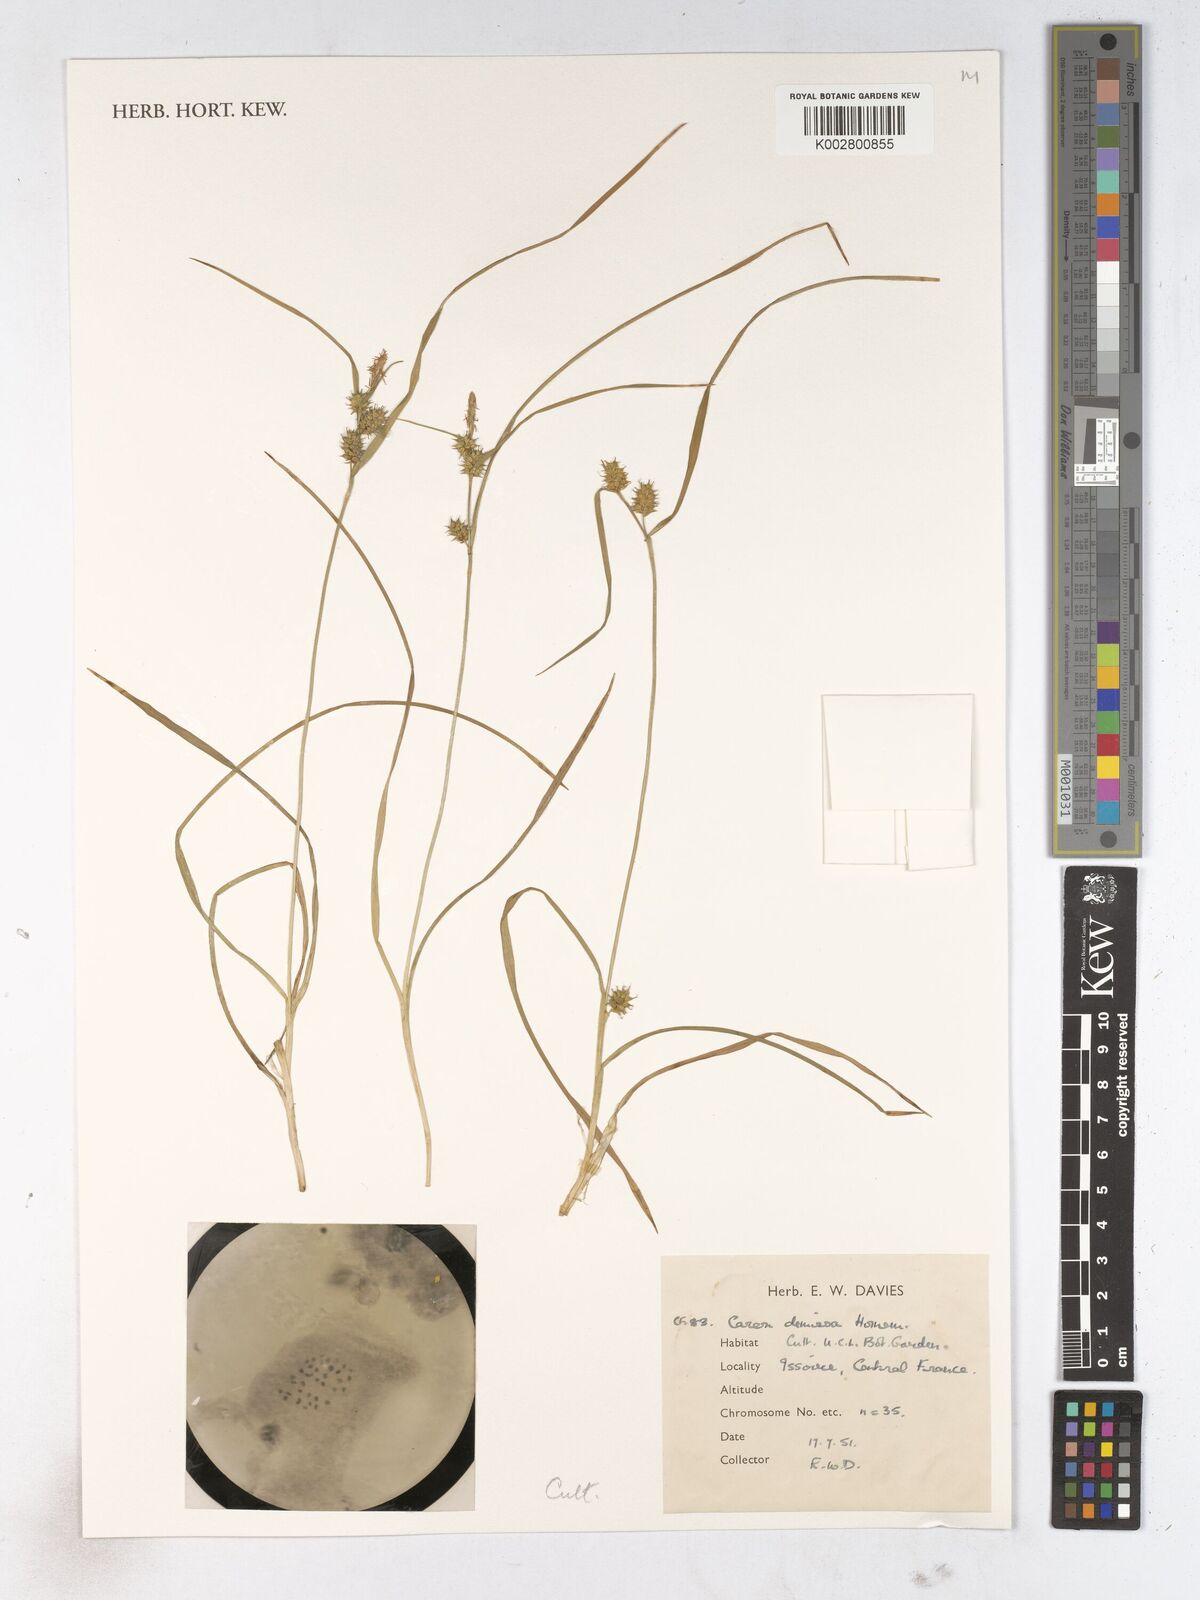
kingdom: Plantae
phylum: Tracheophyta
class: Liliopsida
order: Poales
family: Cyperaceae
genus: Carex
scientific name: Carex demissa
